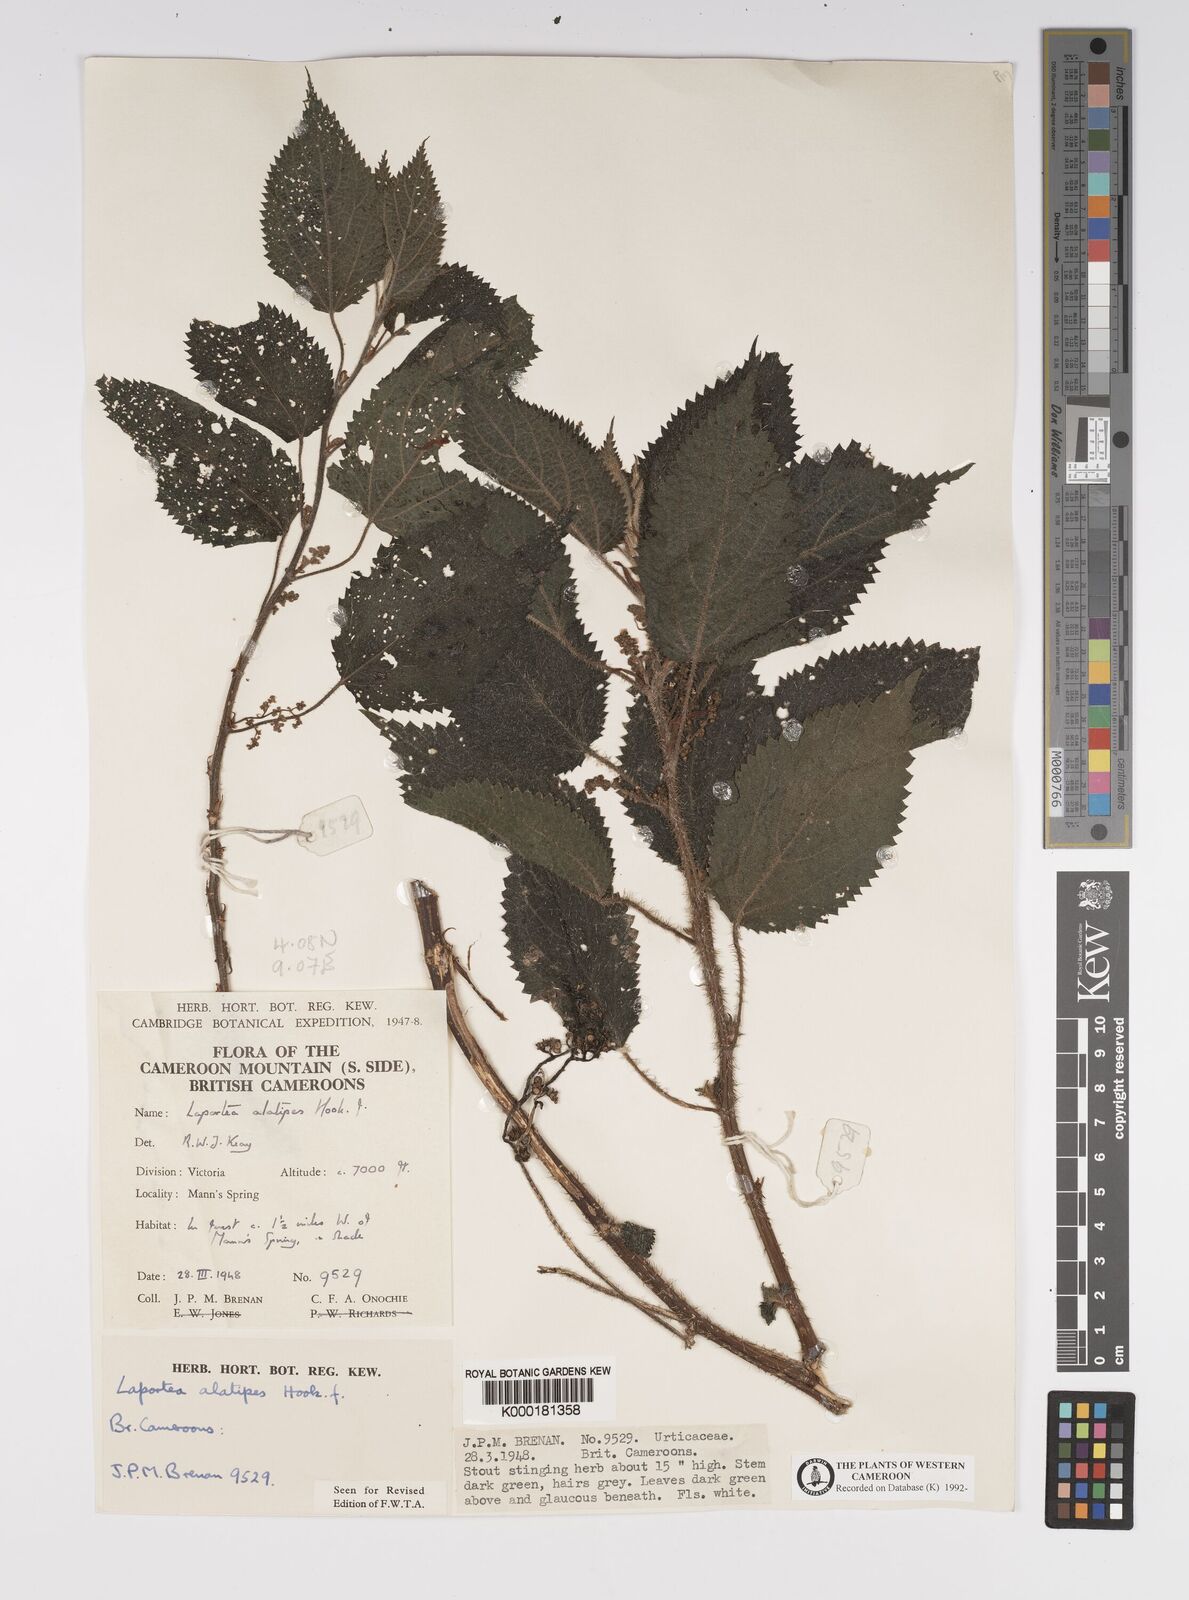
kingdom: Plantae
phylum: Tracheophyta
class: Magnoliopsida
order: Rosales
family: Urticaceae
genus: Laportea
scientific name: Laportea alatipes
